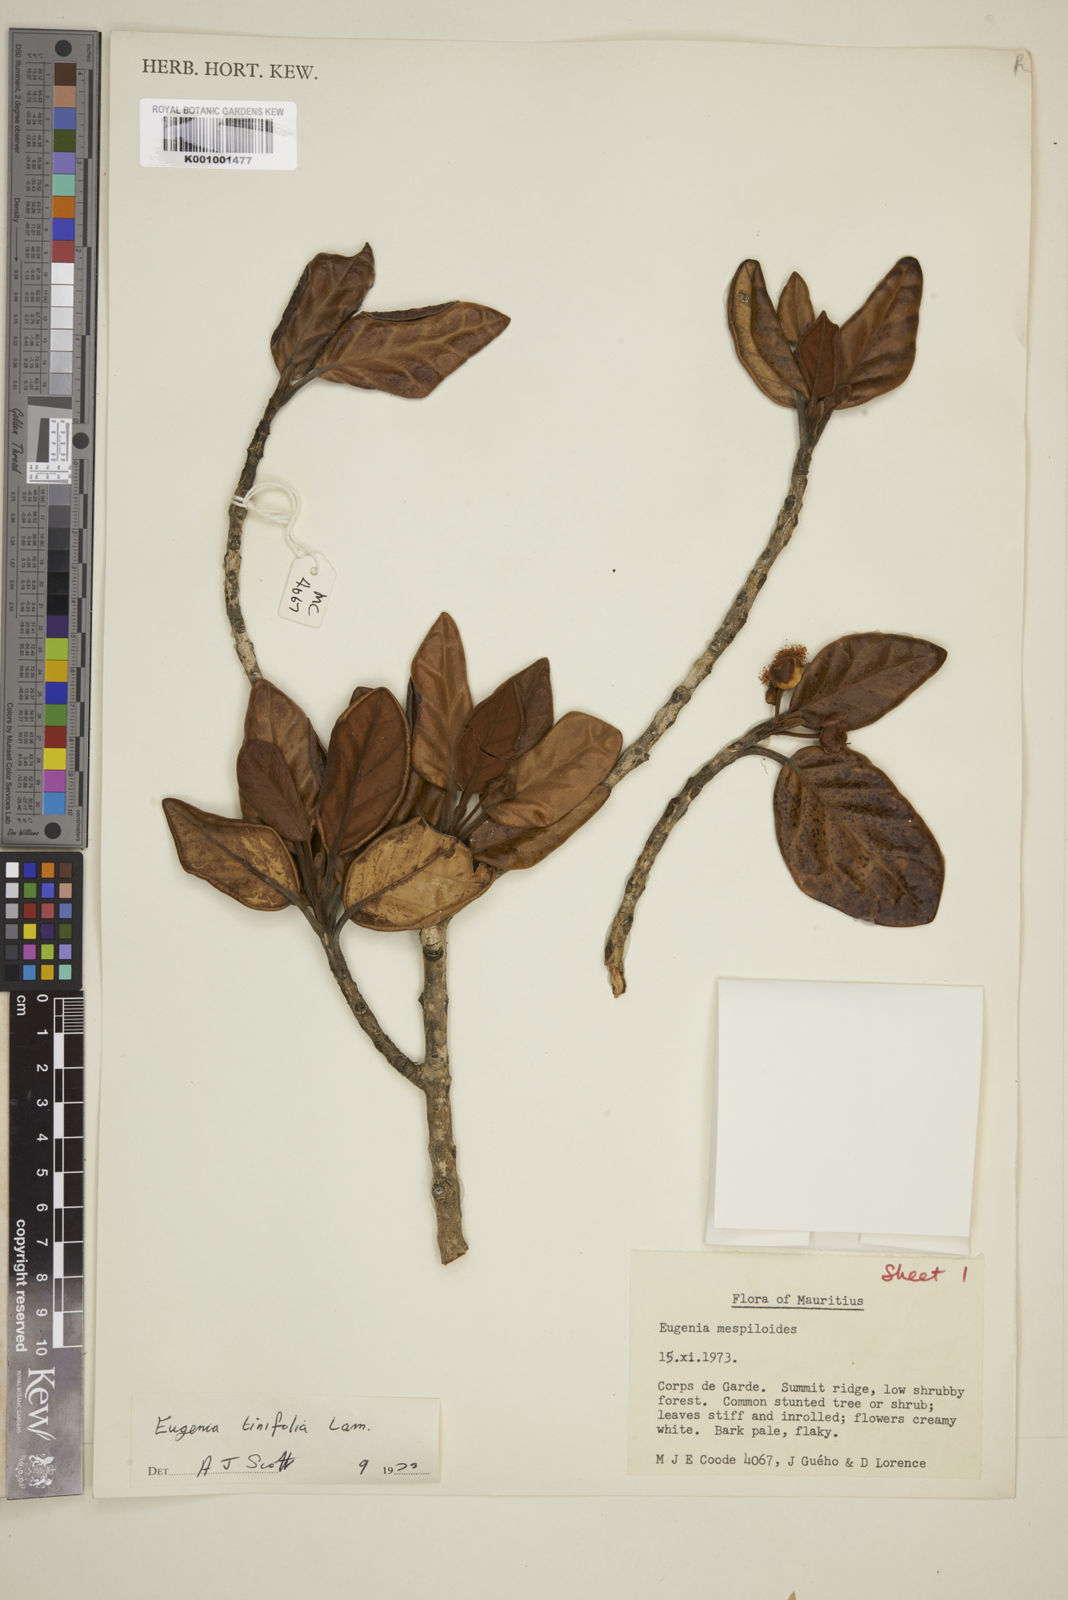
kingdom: Plantae
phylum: Tracheophyta
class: Magnoliopsida
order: Myrtales
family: Myrtaceae
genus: Eugenia
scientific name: Eugenia mespiloides
